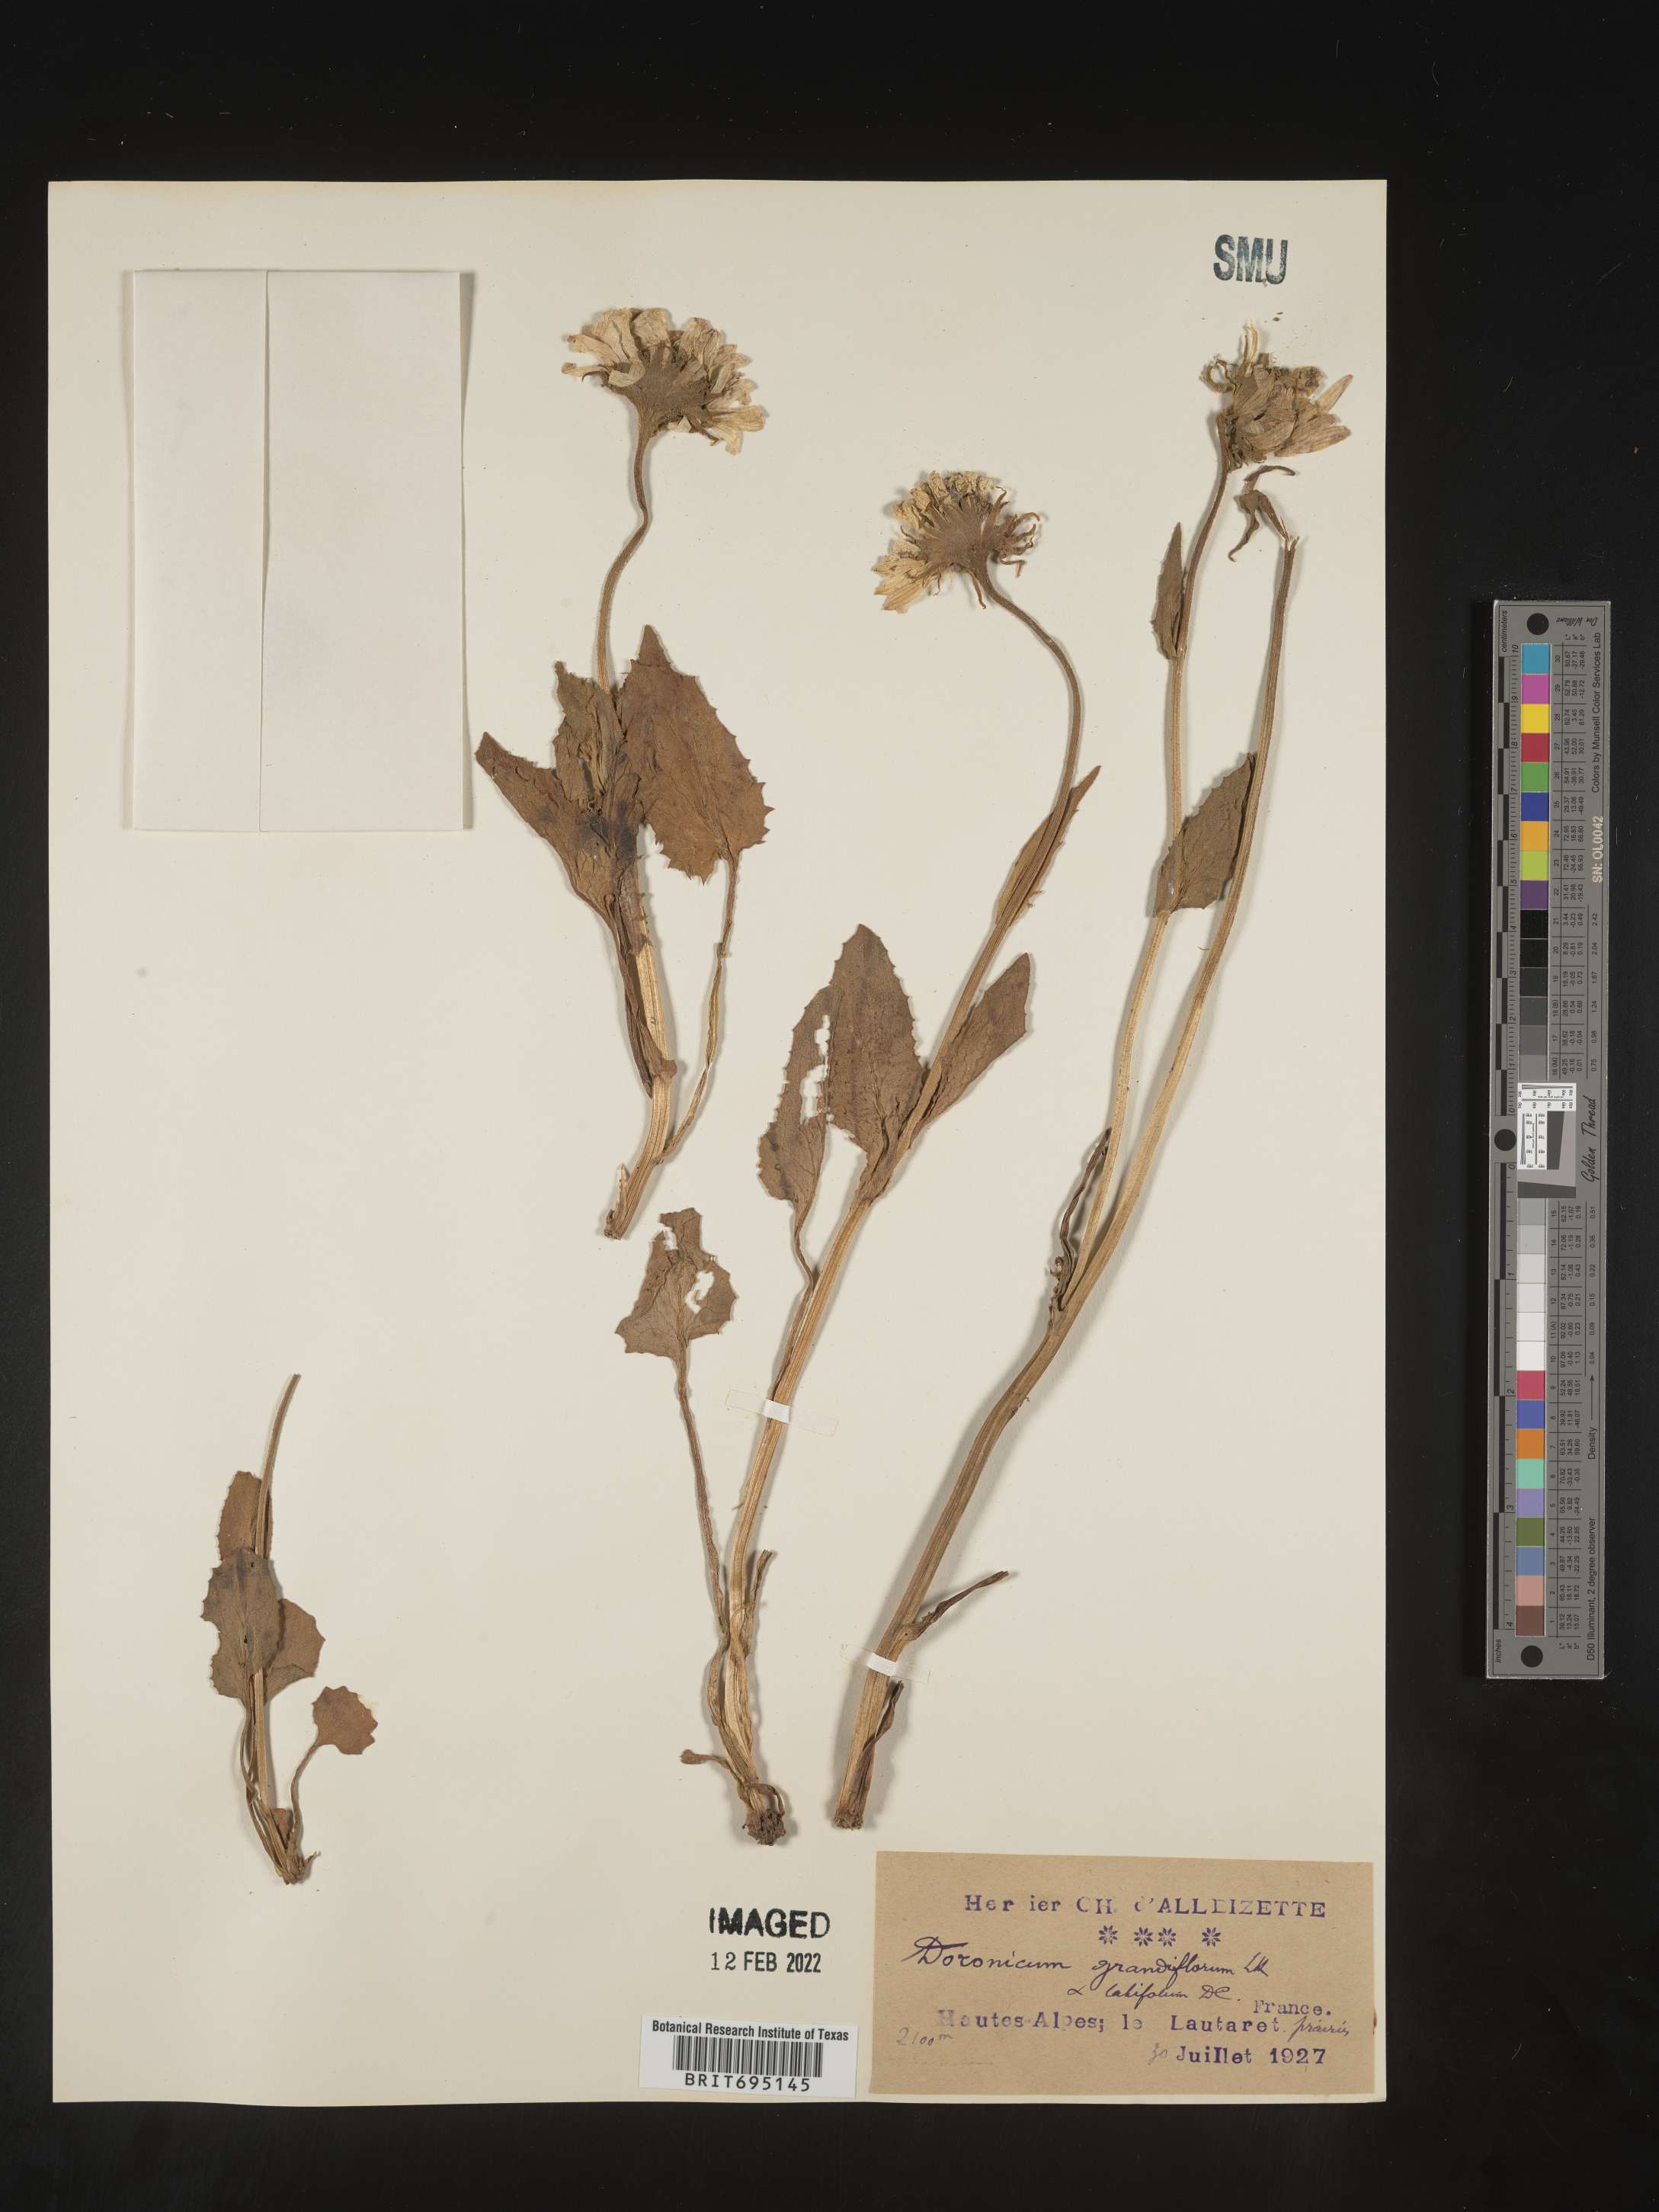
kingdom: Plantae
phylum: Tracheophyta
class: Magnoliopsida
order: Asterales
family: Asteraceae
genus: Doronicum
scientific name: Doronicum
